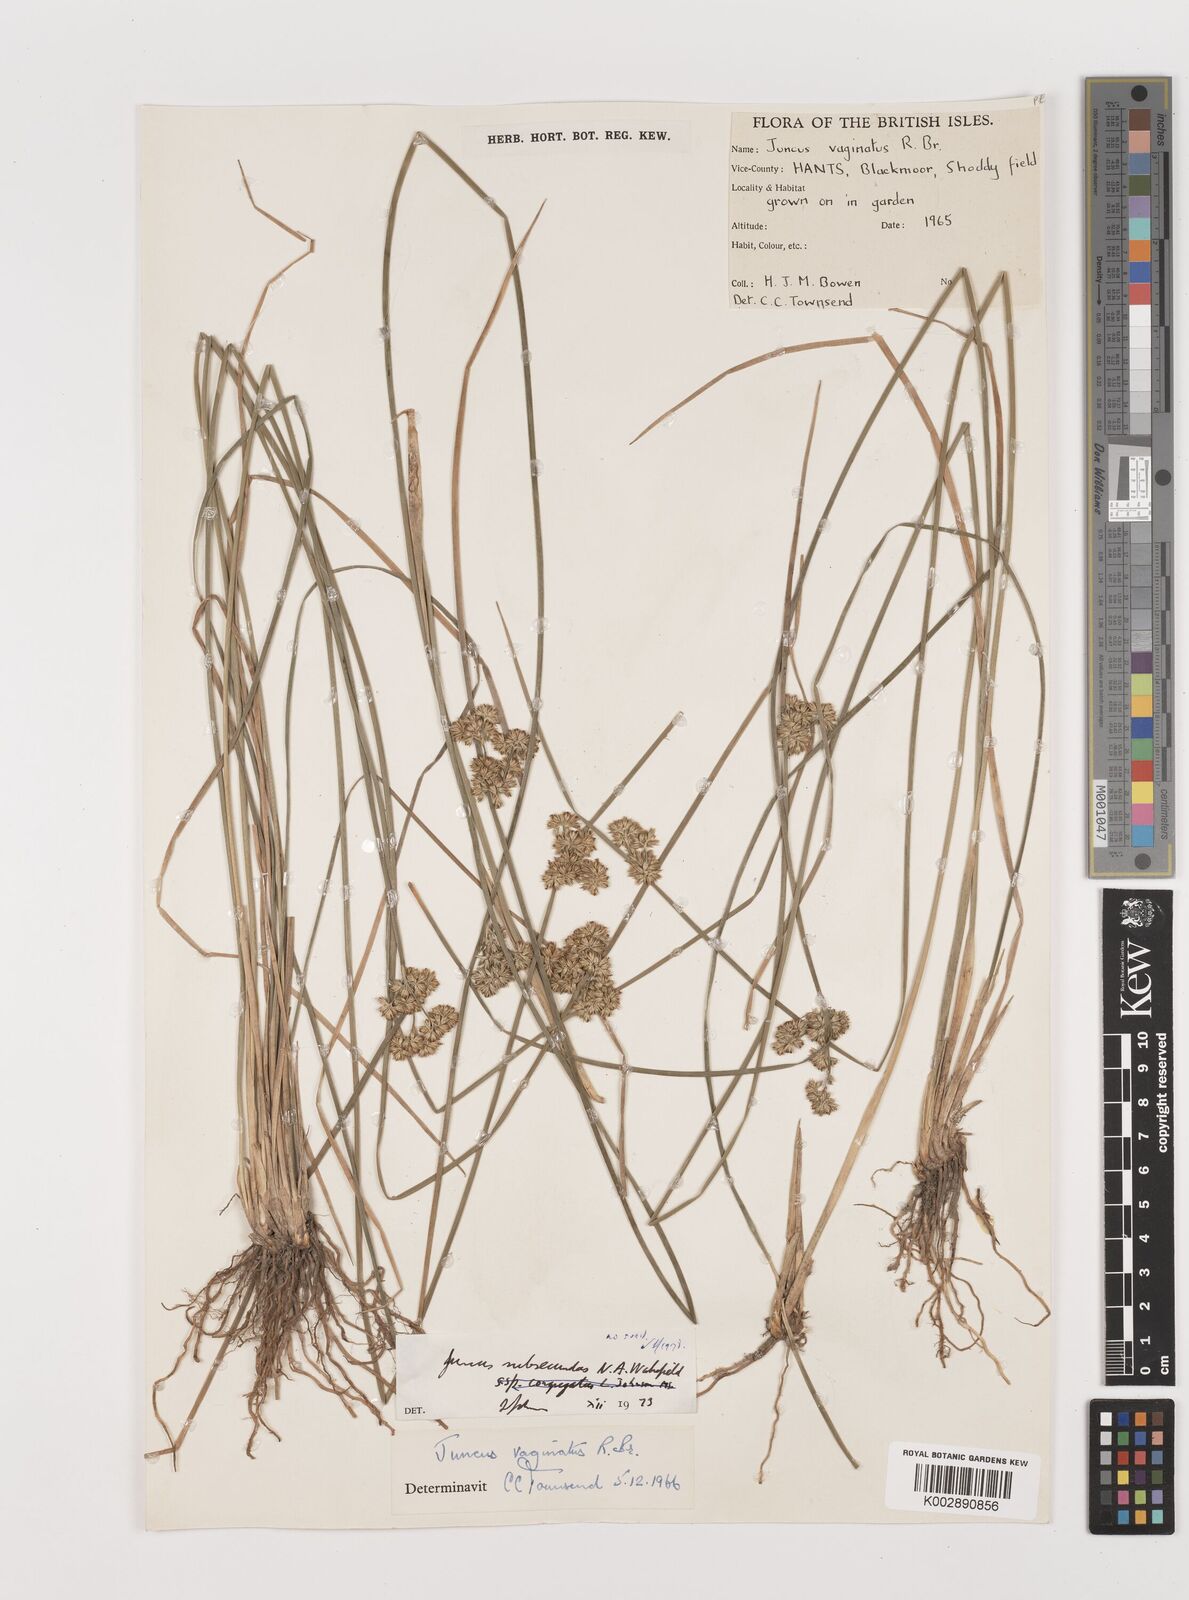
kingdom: Plantae
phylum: Tracheophyta
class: Liliopsida
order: Poales
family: Juncaceae
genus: Juncus
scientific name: Juncus subsecundus
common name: Fingered rush
